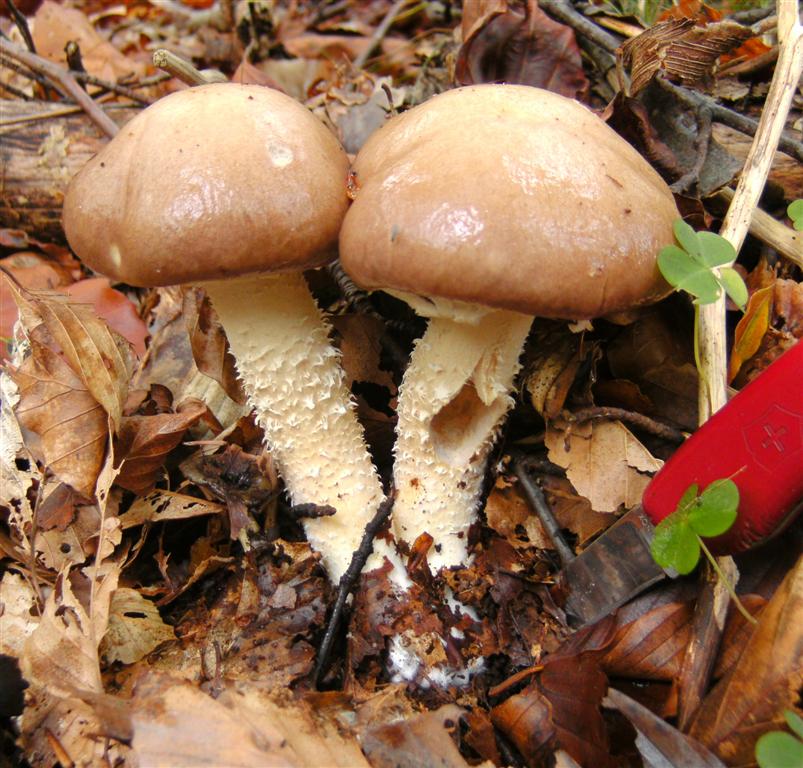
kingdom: Fungi
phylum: Basidiomycota
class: Agaricomycetes
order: Agaricales
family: Strophariaceae
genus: Stropharia
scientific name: Stropharia hornemannii
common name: nordisk bredblad
